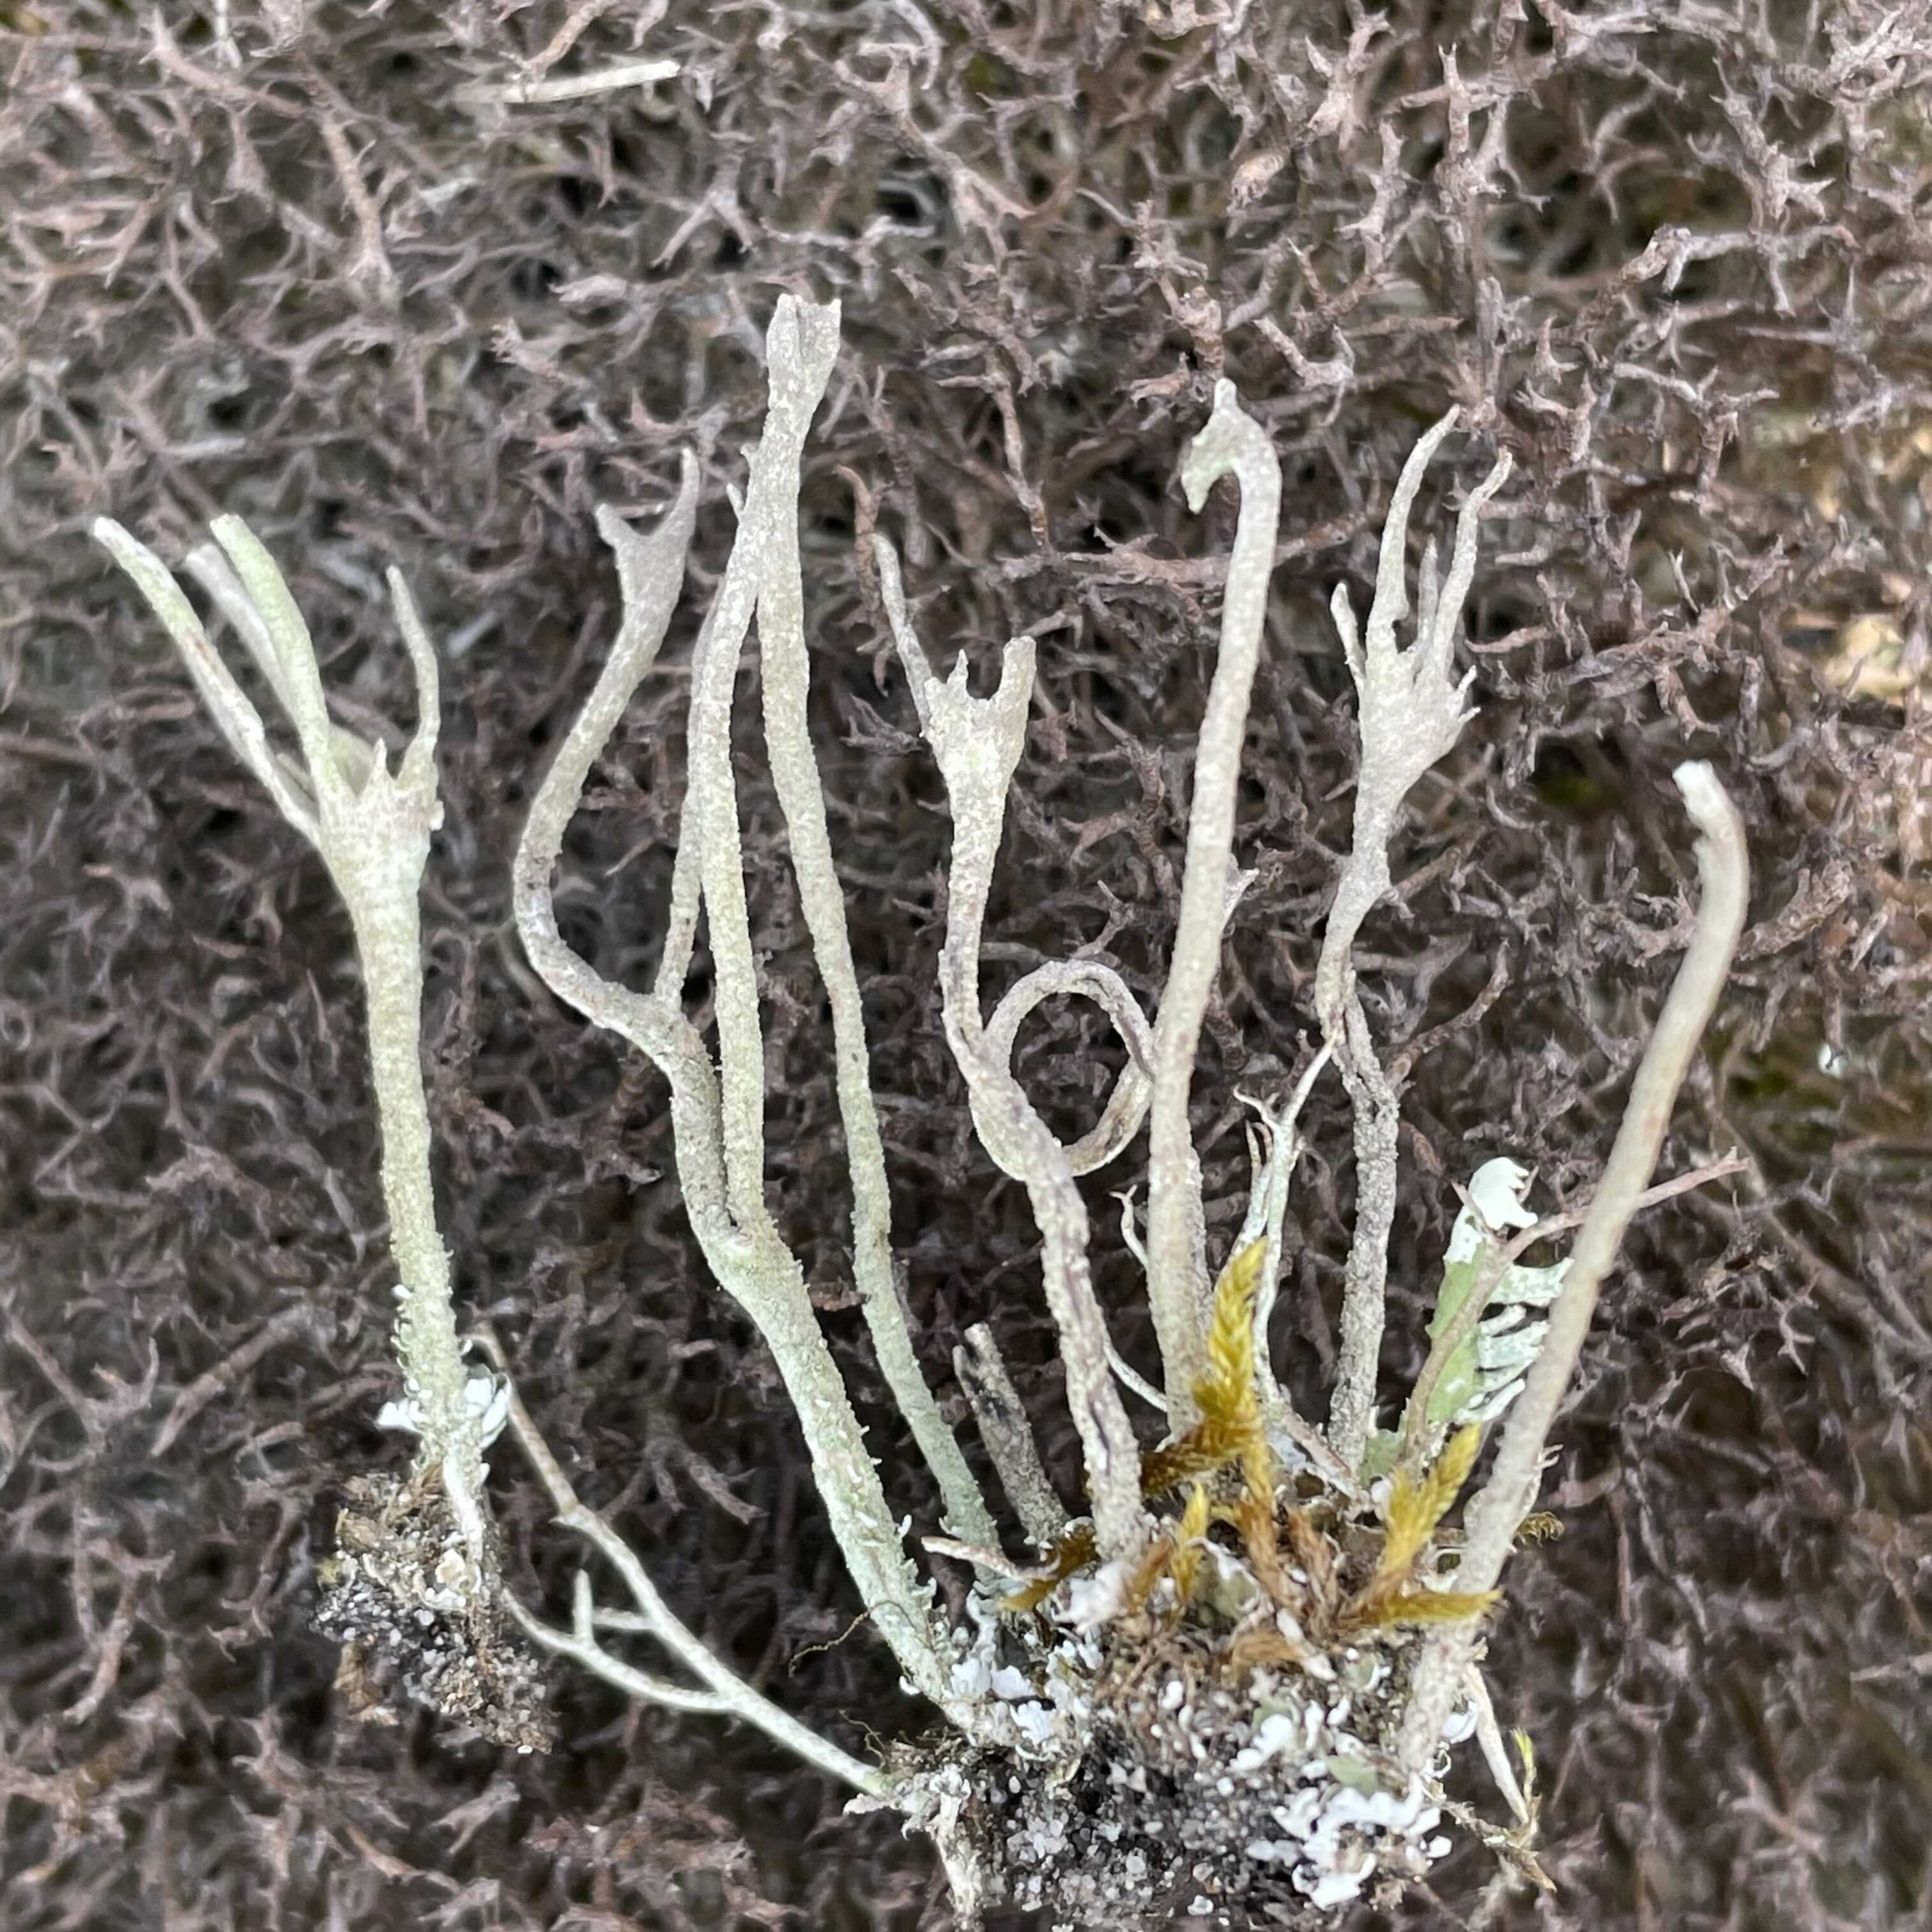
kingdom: Fungi
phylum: Ascomycota
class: Lecanoromycetes
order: Lecanorales
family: Cladoniaceae
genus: Cladonia
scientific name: Cladonia subulata
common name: spids bægerlav
